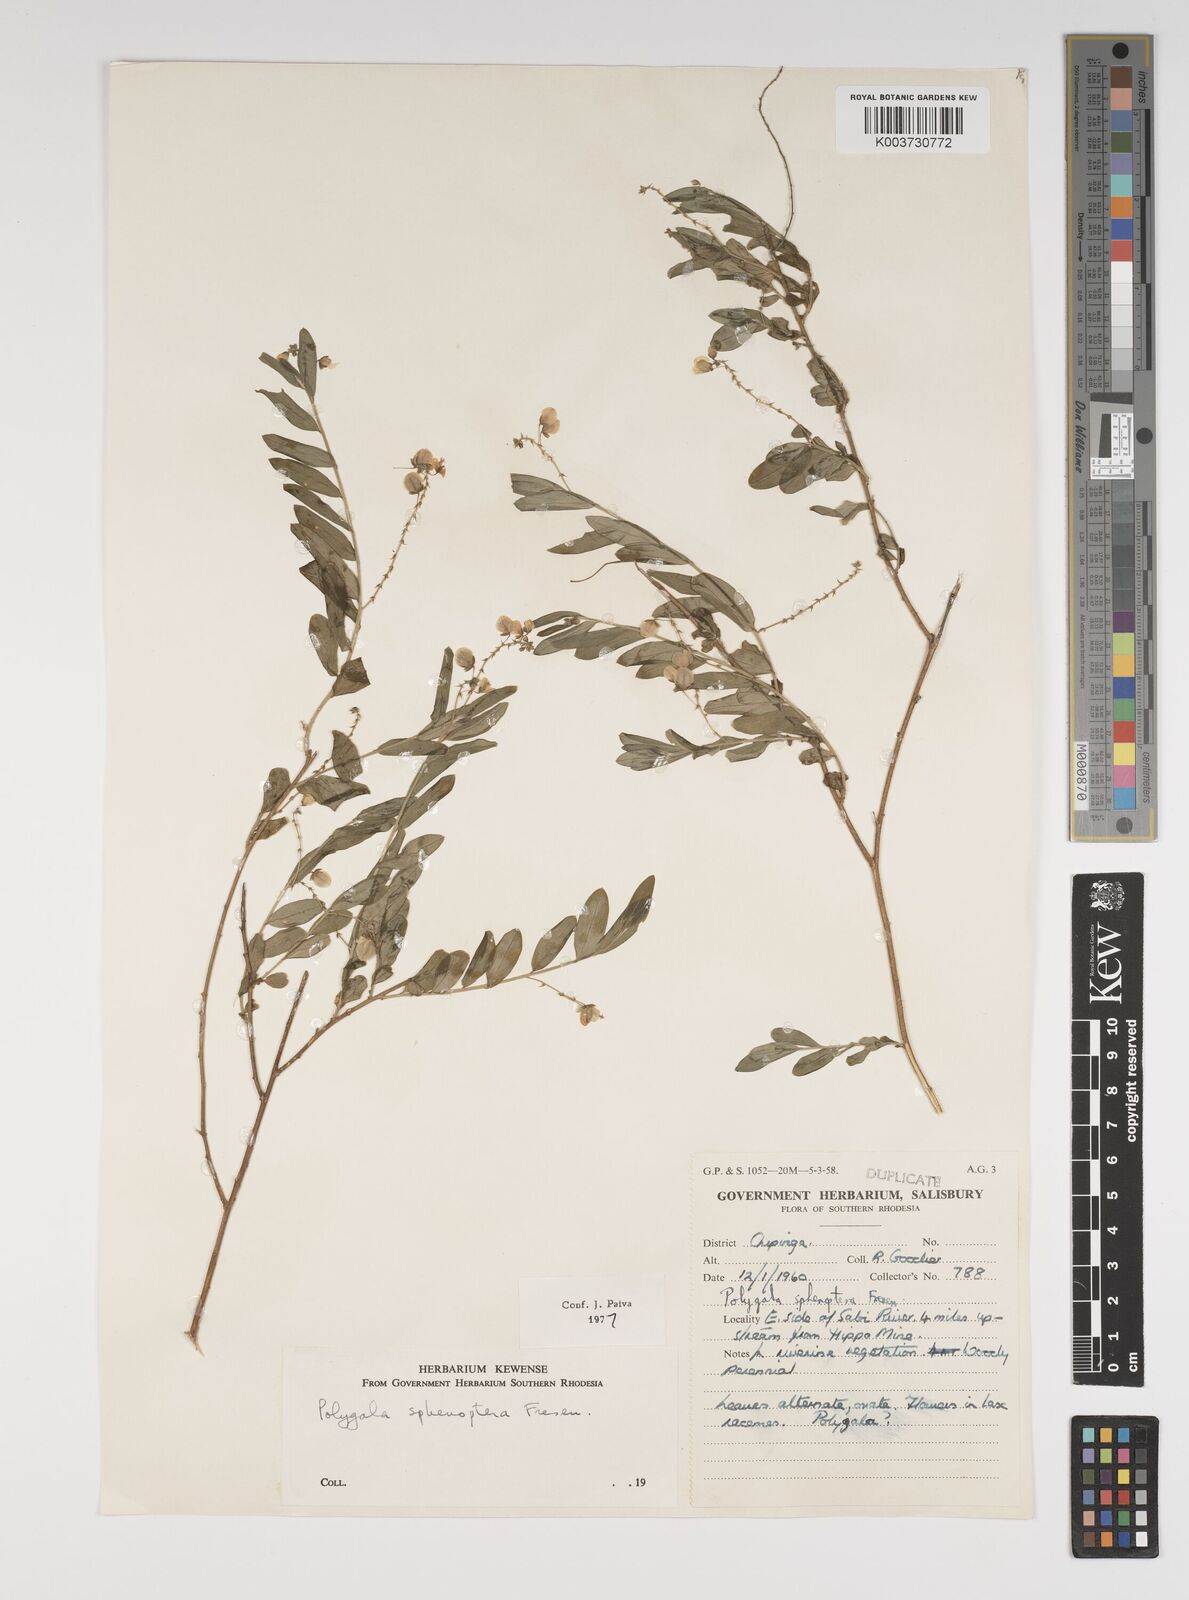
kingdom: Plantae
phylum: Tracheophyta
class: Magnoliopsida
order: Fabales
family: Polygalaceae
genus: Polygala
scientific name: Polygala sphenoptera
